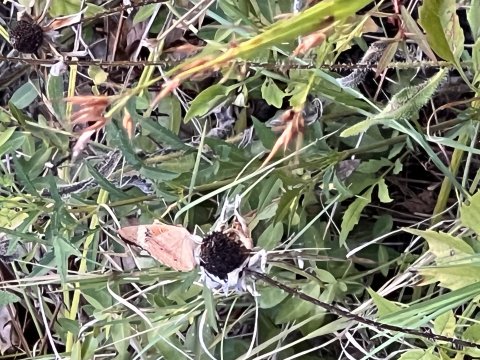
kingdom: Animalia
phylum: Arthropoda
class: Insecta
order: Lepidoptera
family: Nymphalidae
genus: Junonia
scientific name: Junonia coenia
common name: Common Buckeye
